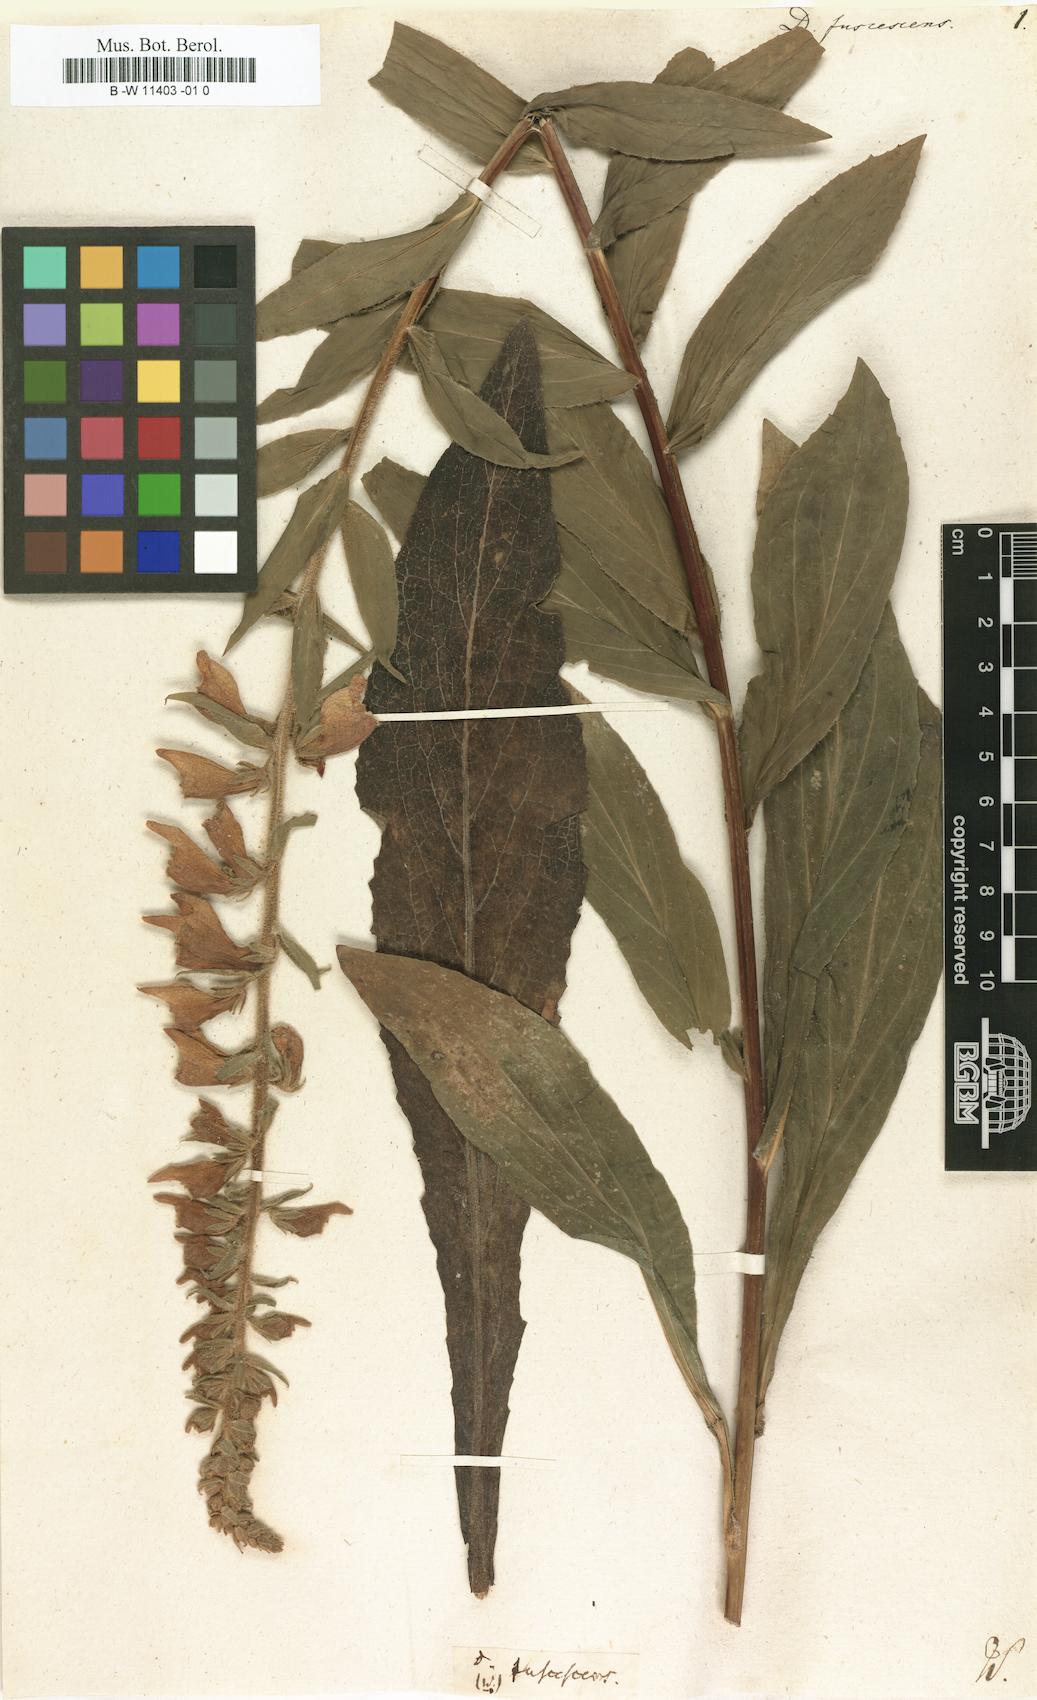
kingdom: Plantae
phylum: Tracheophyta
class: Magnoliopsida
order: Lamiales
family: Plantaginaceae
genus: Digitalis
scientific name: Digitalis fulva
